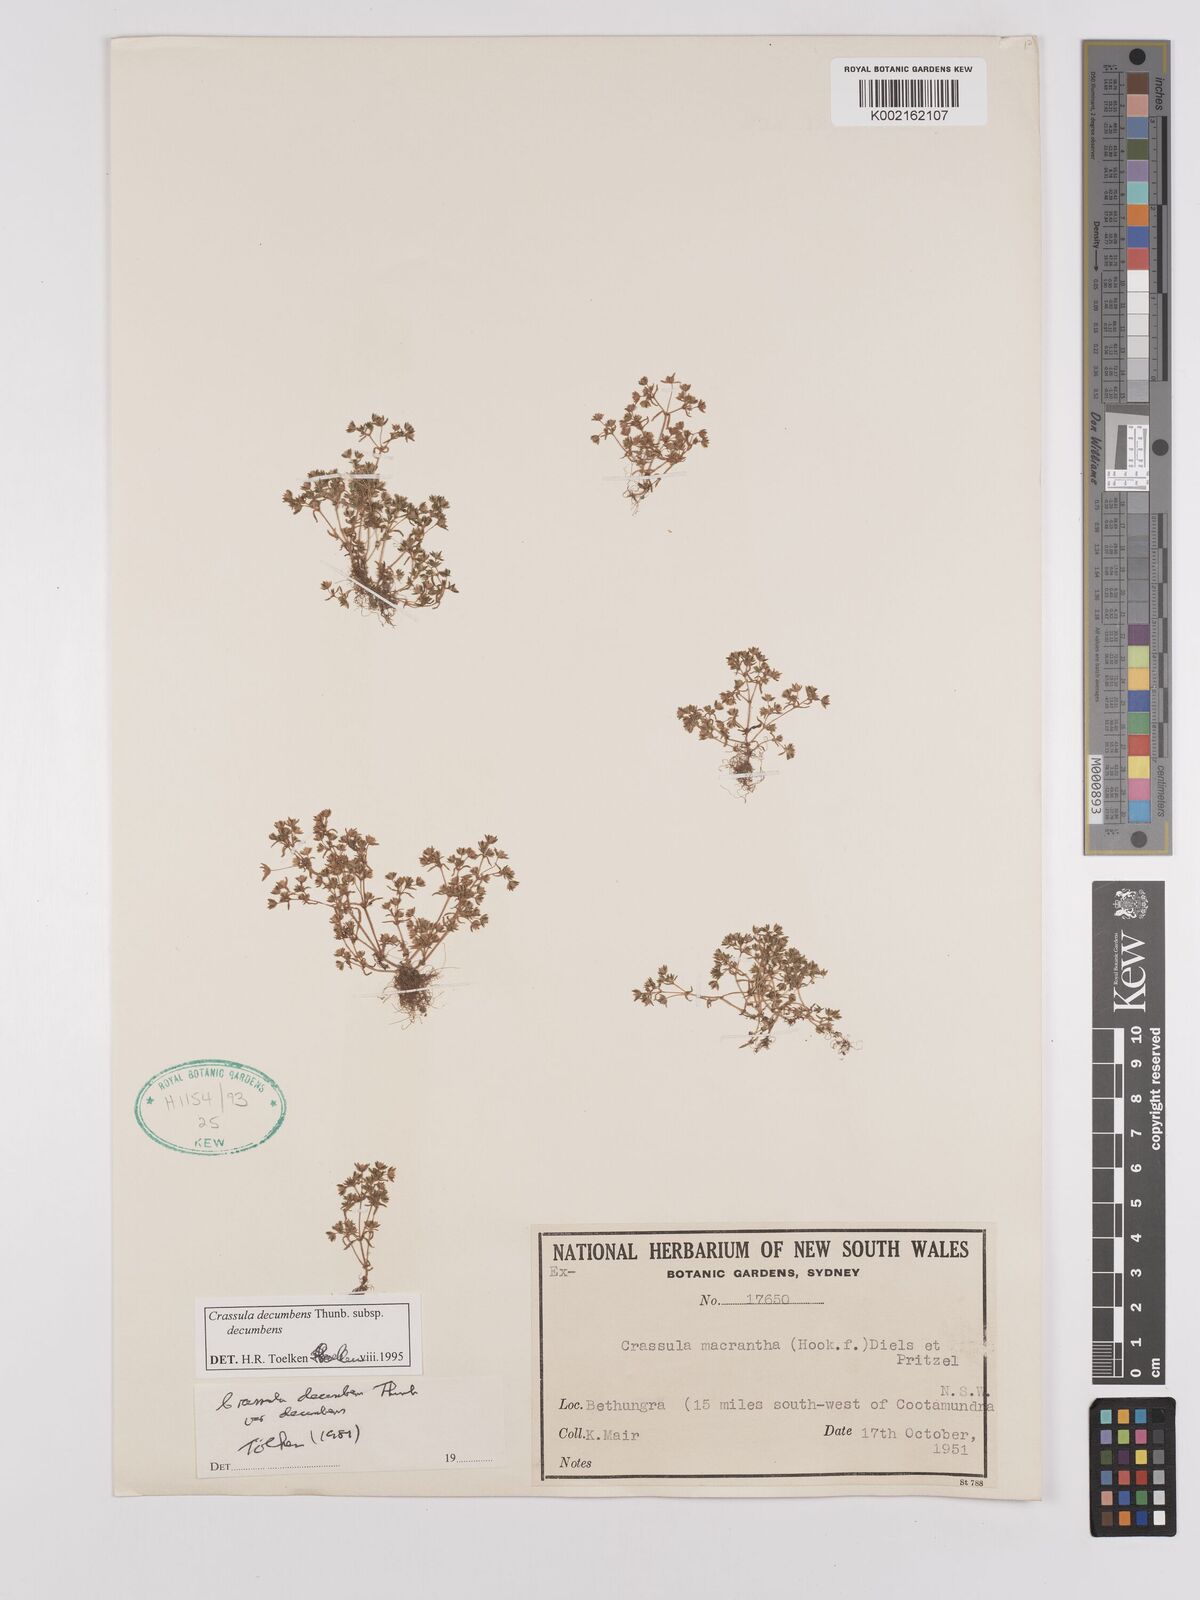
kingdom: Plantae
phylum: Tracheophyta
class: Magnoliopsida
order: Saxifragales
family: Crassulaceae
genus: Crassula
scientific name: Crassula decumbens
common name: Scilly pigmyweed
